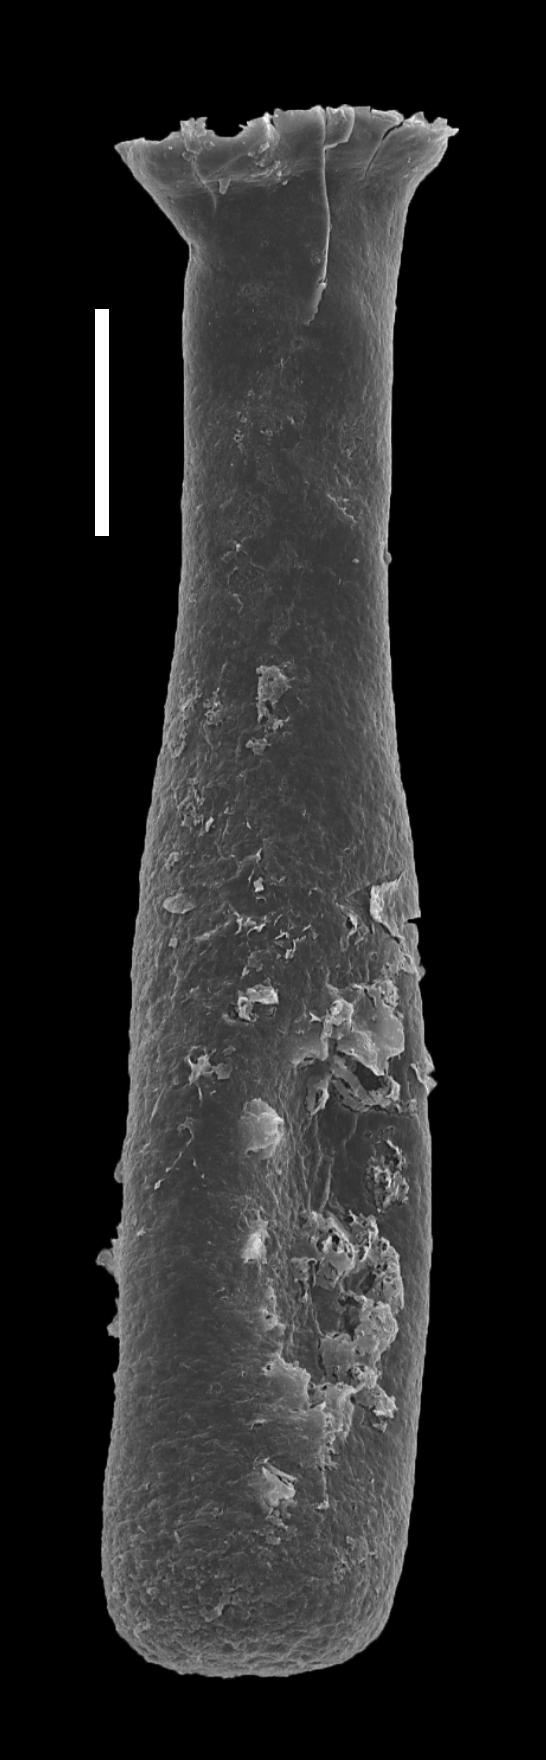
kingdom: Animalia
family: Lagenochitinidae
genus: Lagenochitina
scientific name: Lagenochitina
